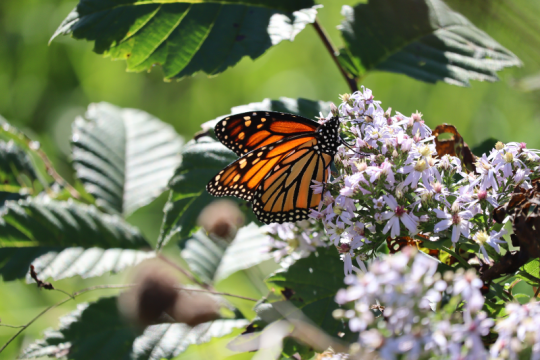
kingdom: Animalia
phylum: Arthropoda
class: Insecta
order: Lepidoptera
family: Nymphalidae
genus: Danaus
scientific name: Danaus plexippus
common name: Monarch
